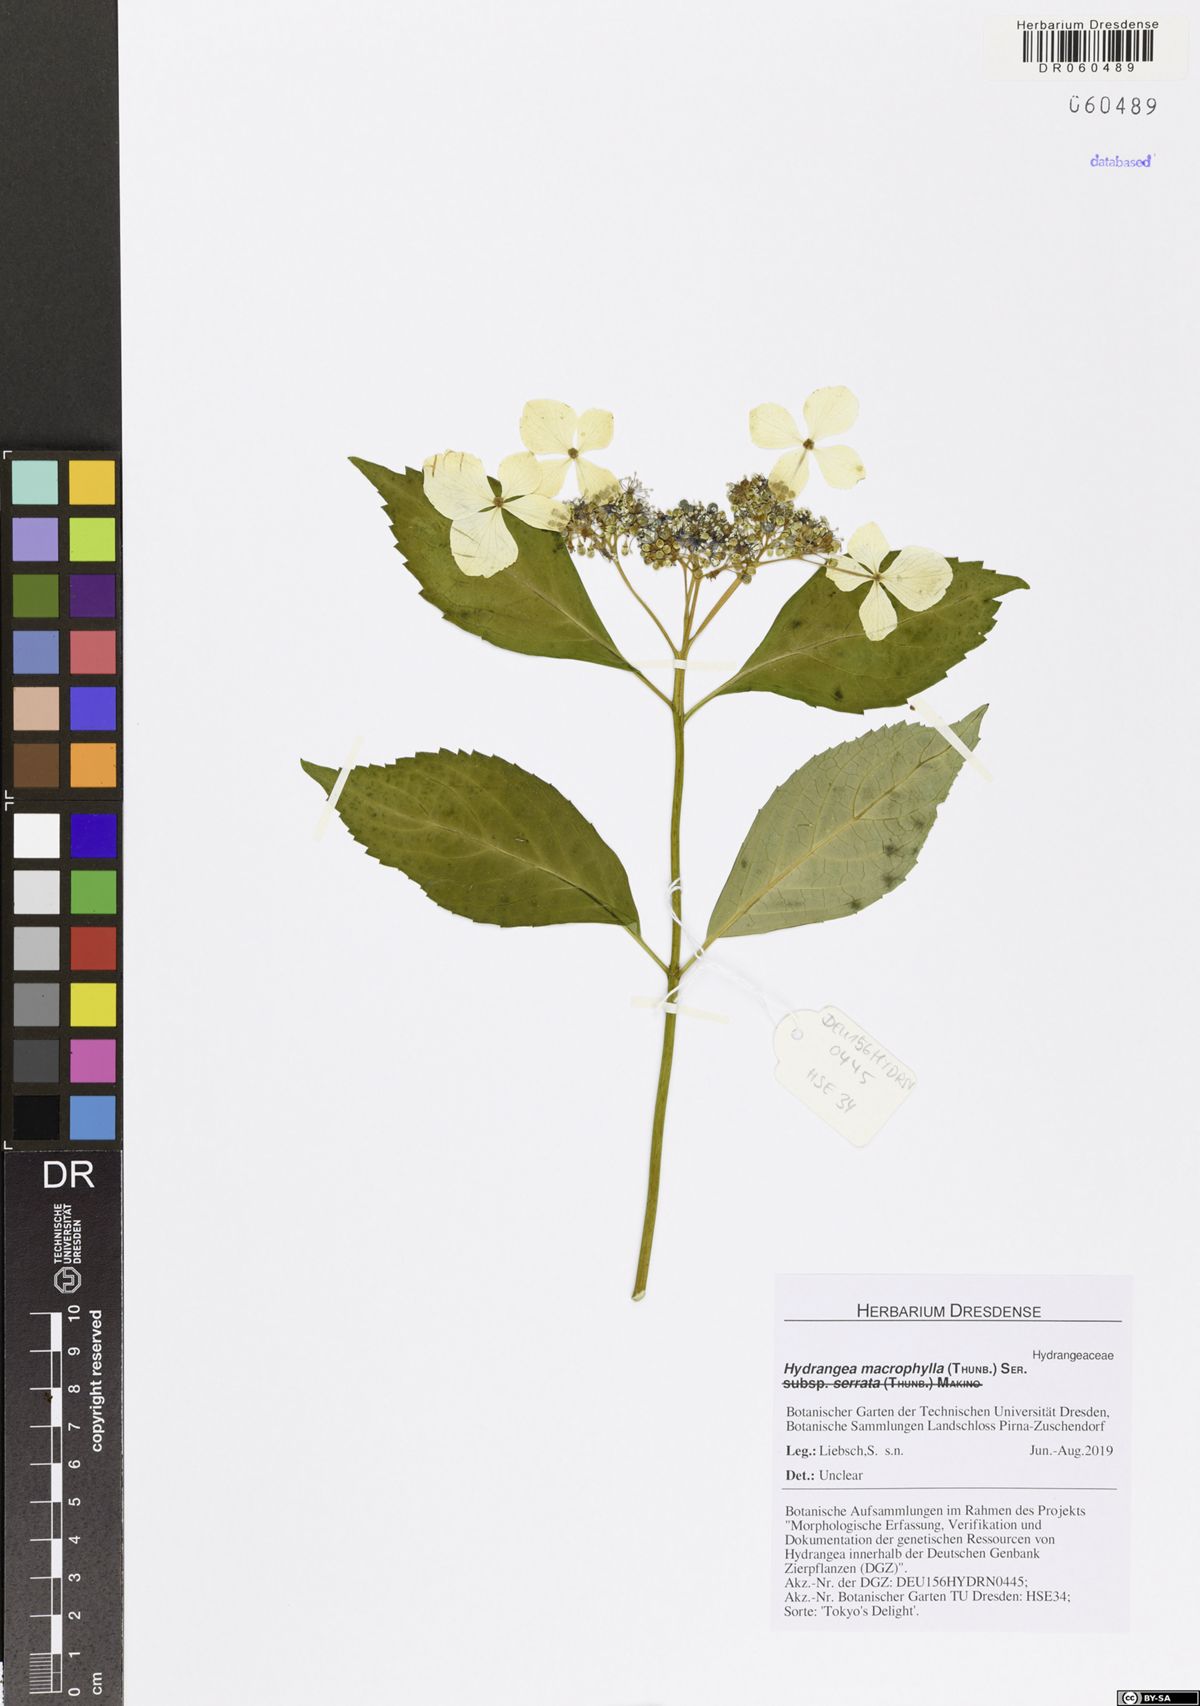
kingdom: Plantae
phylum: Tracheophyta
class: Magnoliopsida
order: Cornales
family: Hydrangeaceae
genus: Hydrangea
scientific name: Hydrangea macrophylla
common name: Hydrangea
